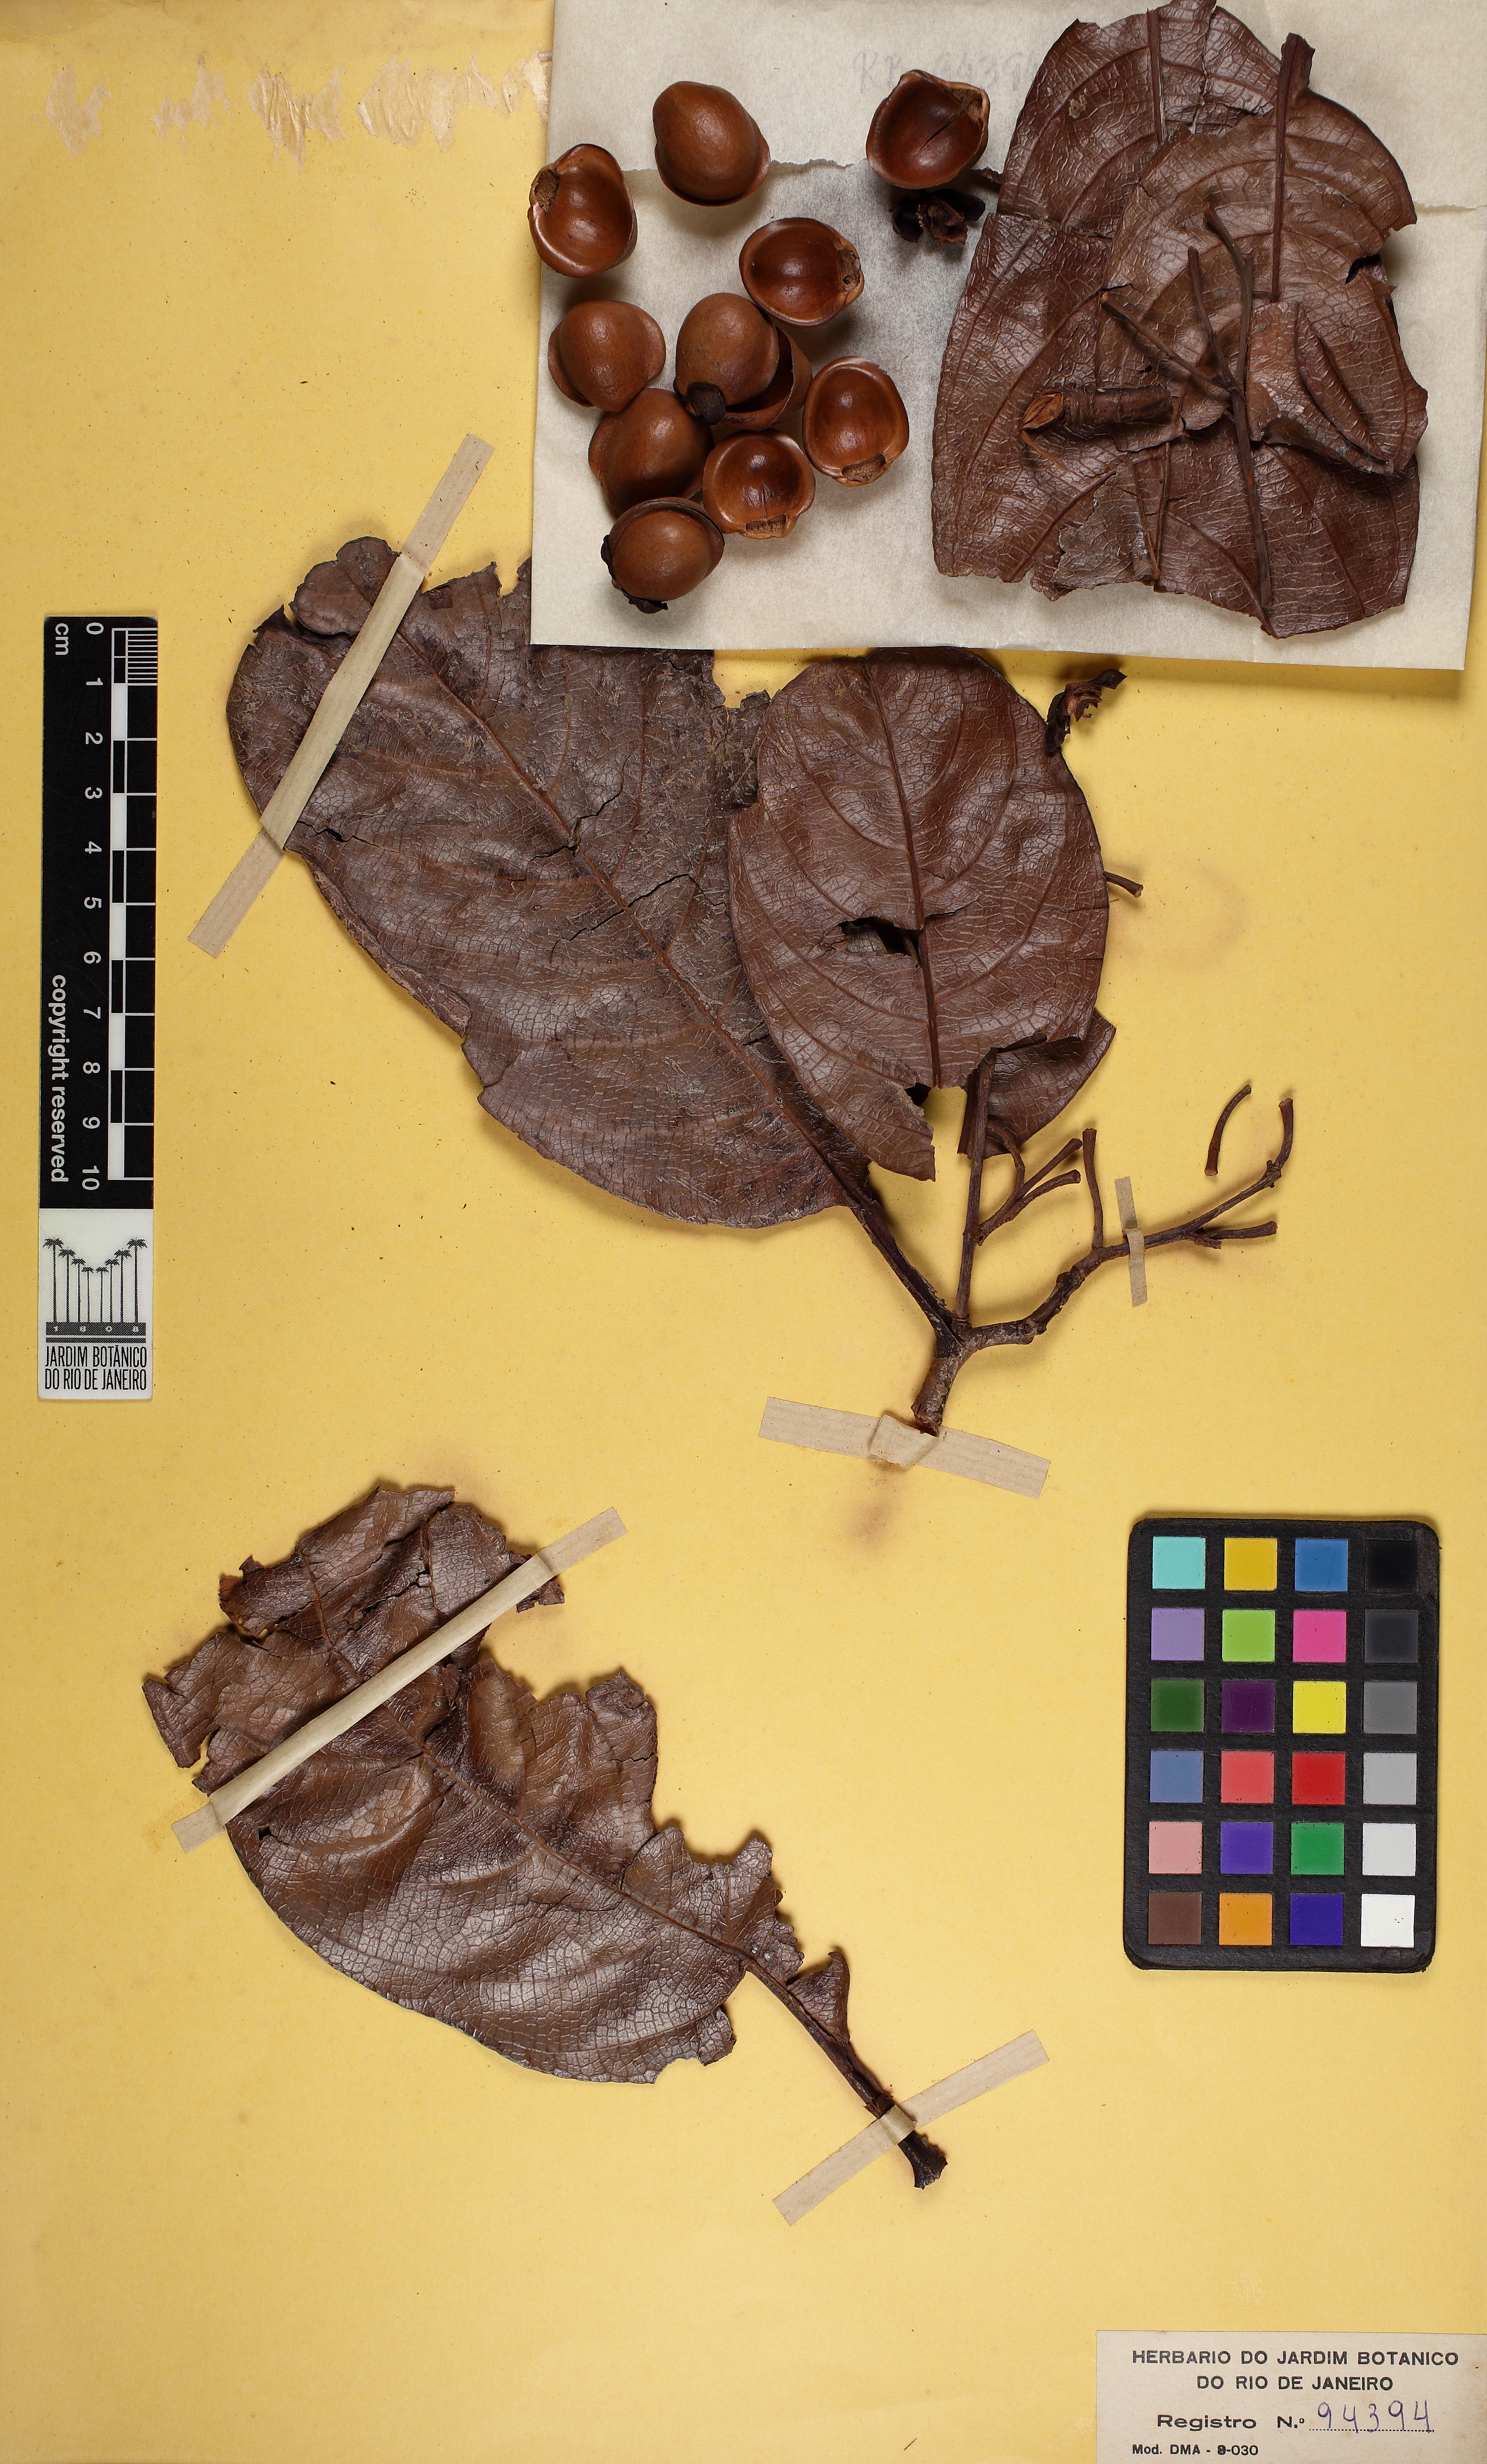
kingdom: Plantae
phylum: Tracheophyta
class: Magnoliopsida
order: Dilleniales
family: Dilleniaceae
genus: Davilla
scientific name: Davilla macrocarpa
